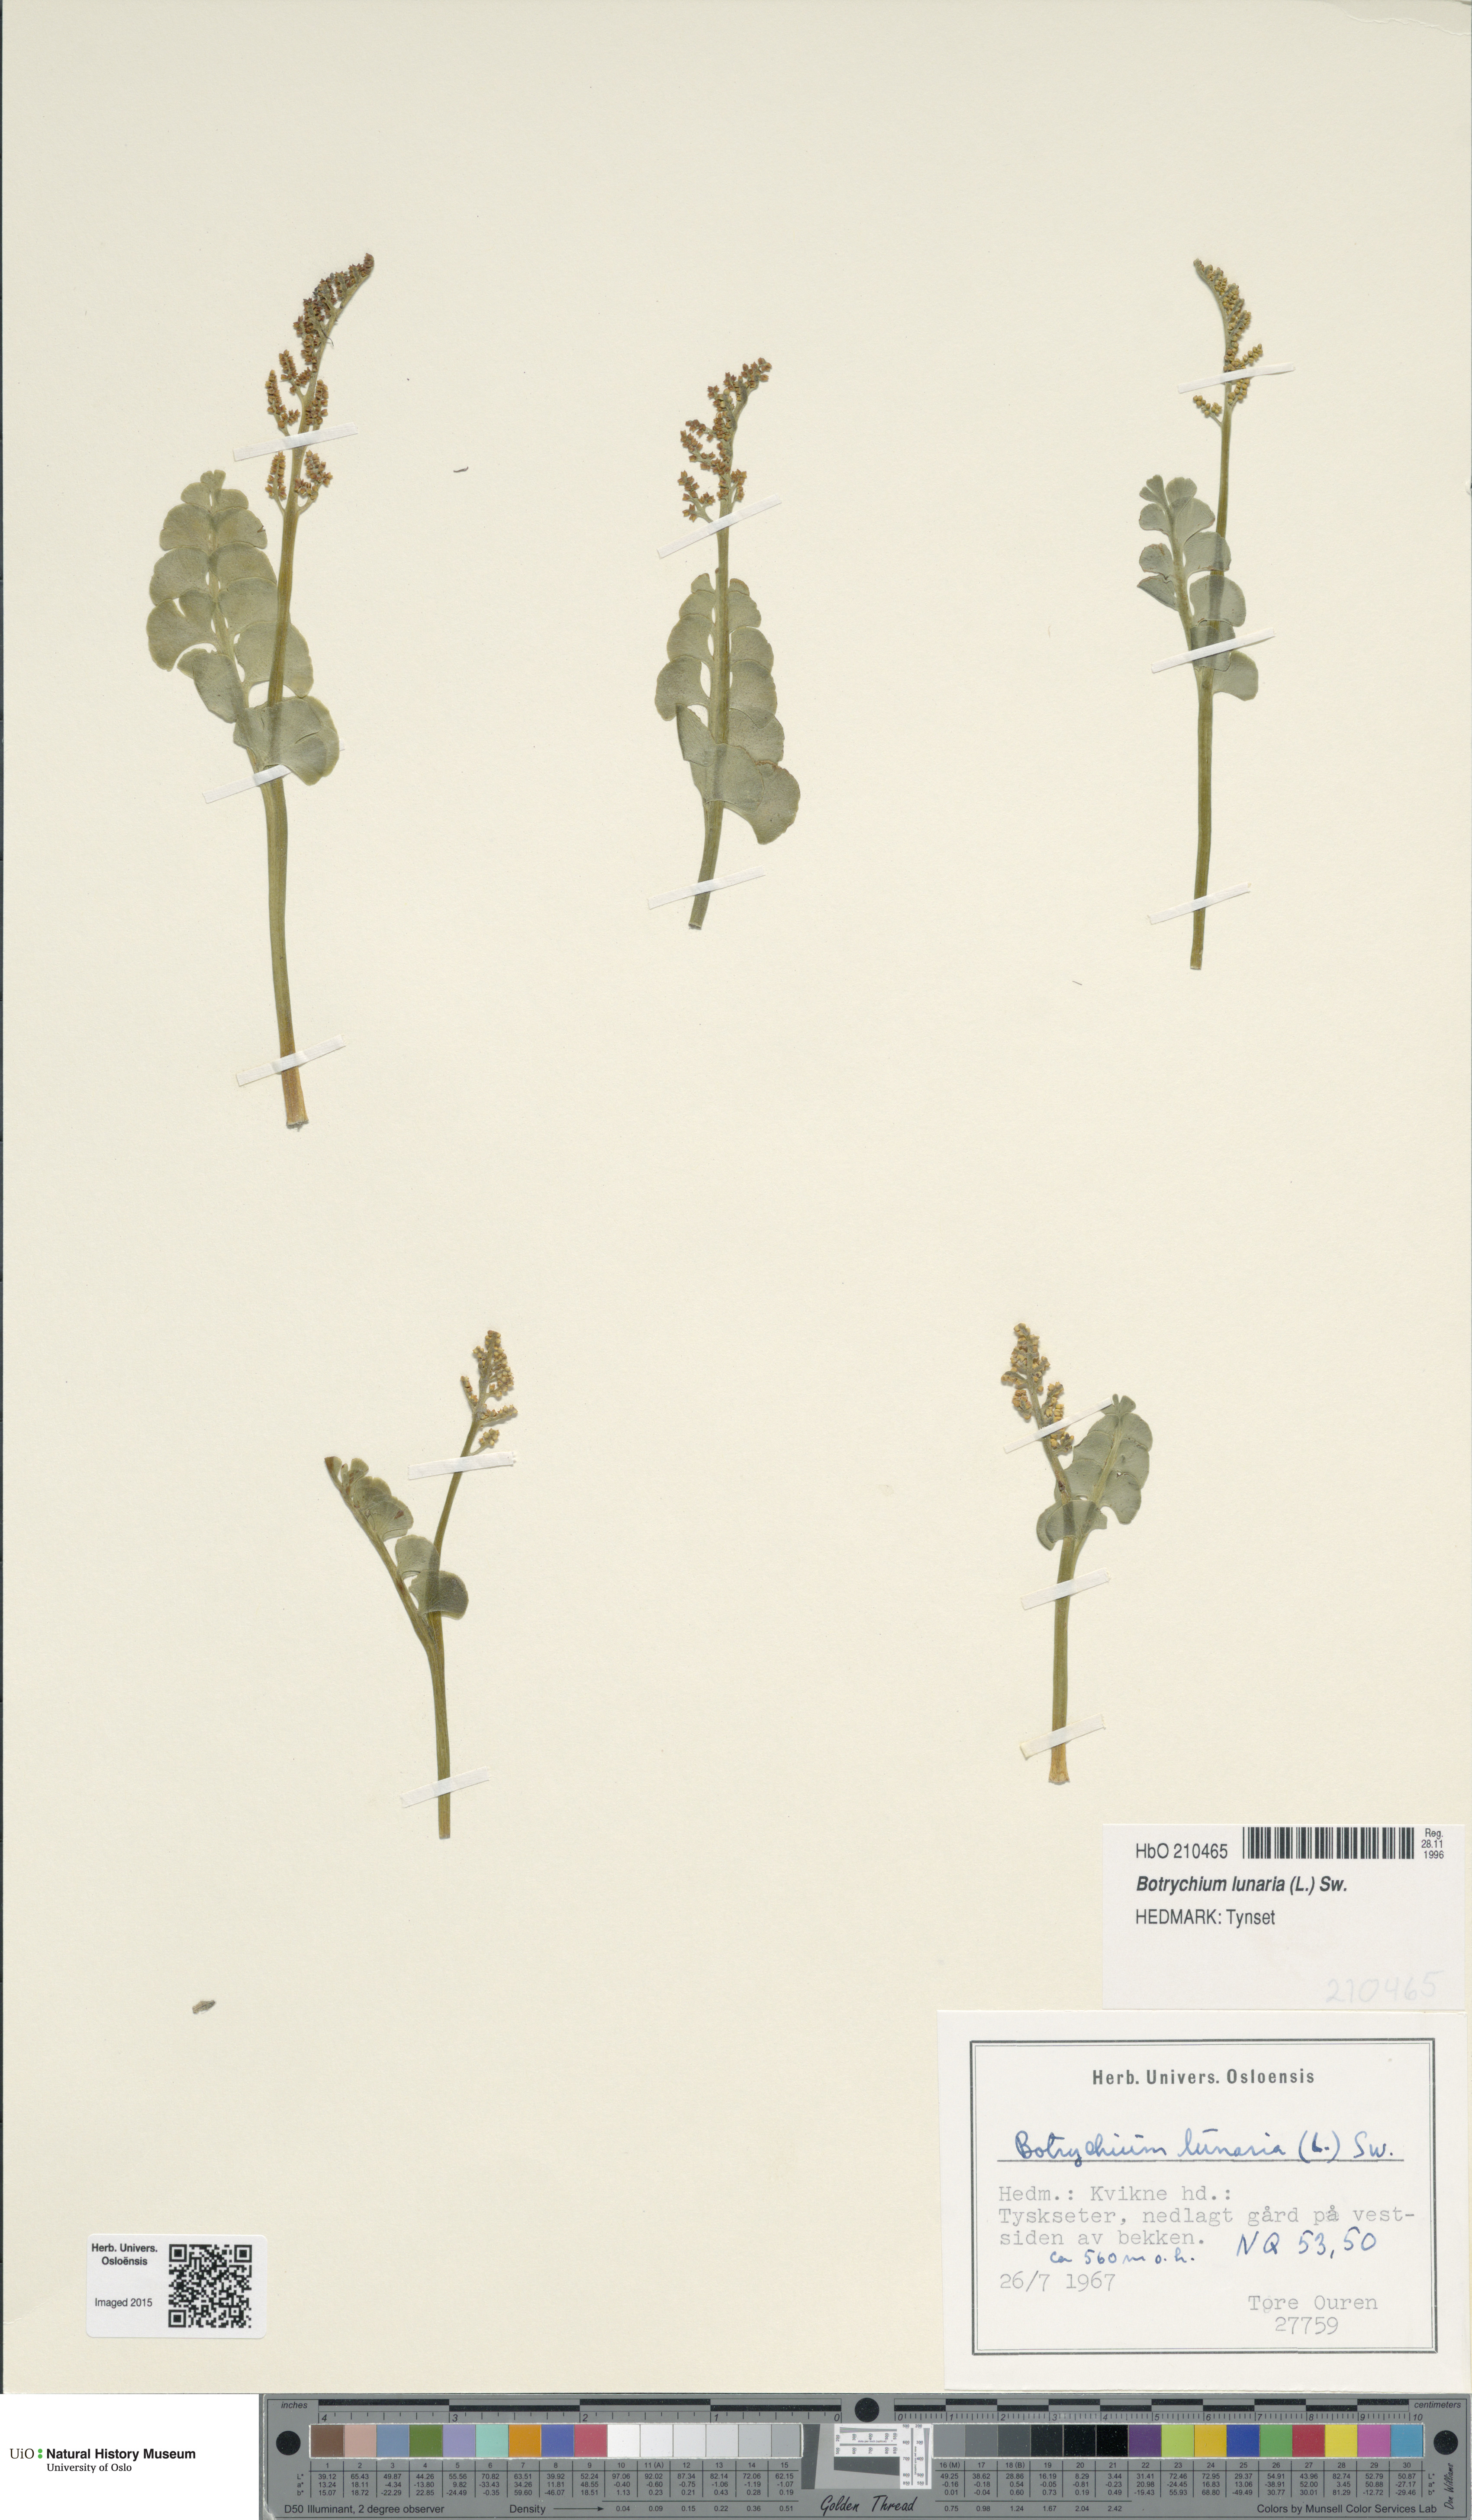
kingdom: Plantae
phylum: Tracheophyta
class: Polypodiopsida
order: Ophioglossales
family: Ophioglossaceae
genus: Botrychium
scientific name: Botrychium lunaria
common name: Moonwort
